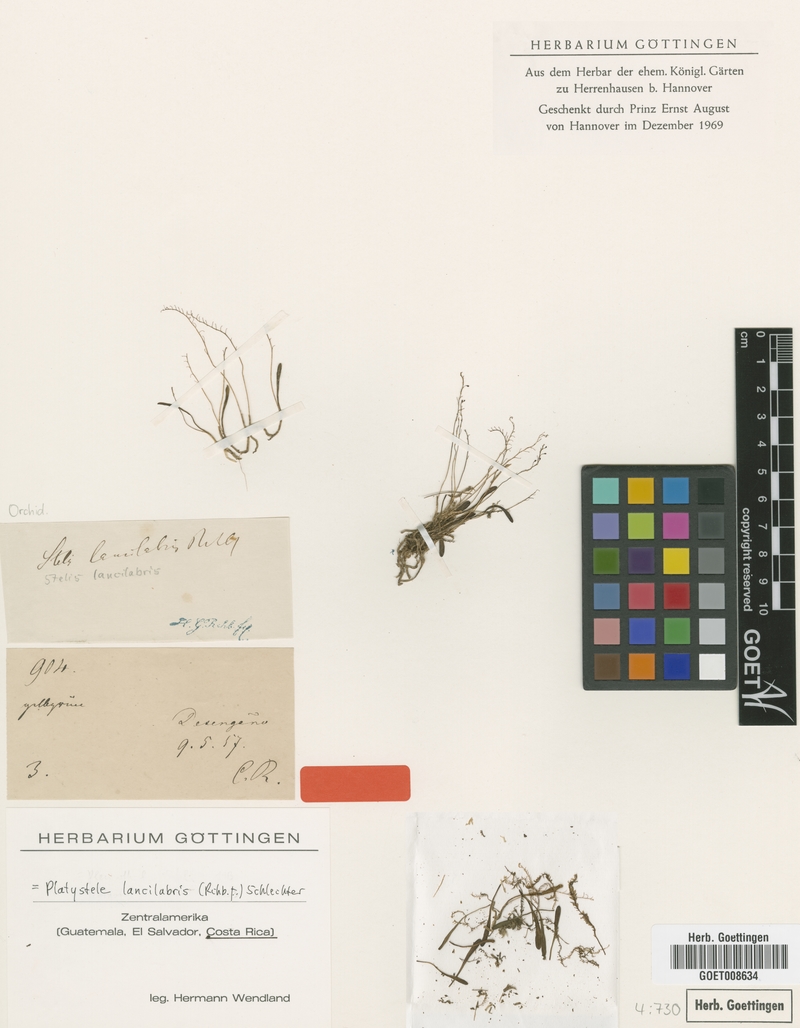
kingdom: Plantae
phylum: Tracheophyta
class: Liliopsida
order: Asparagales
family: Orchidaceae
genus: Platystele
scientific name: Platystele lancilabris
